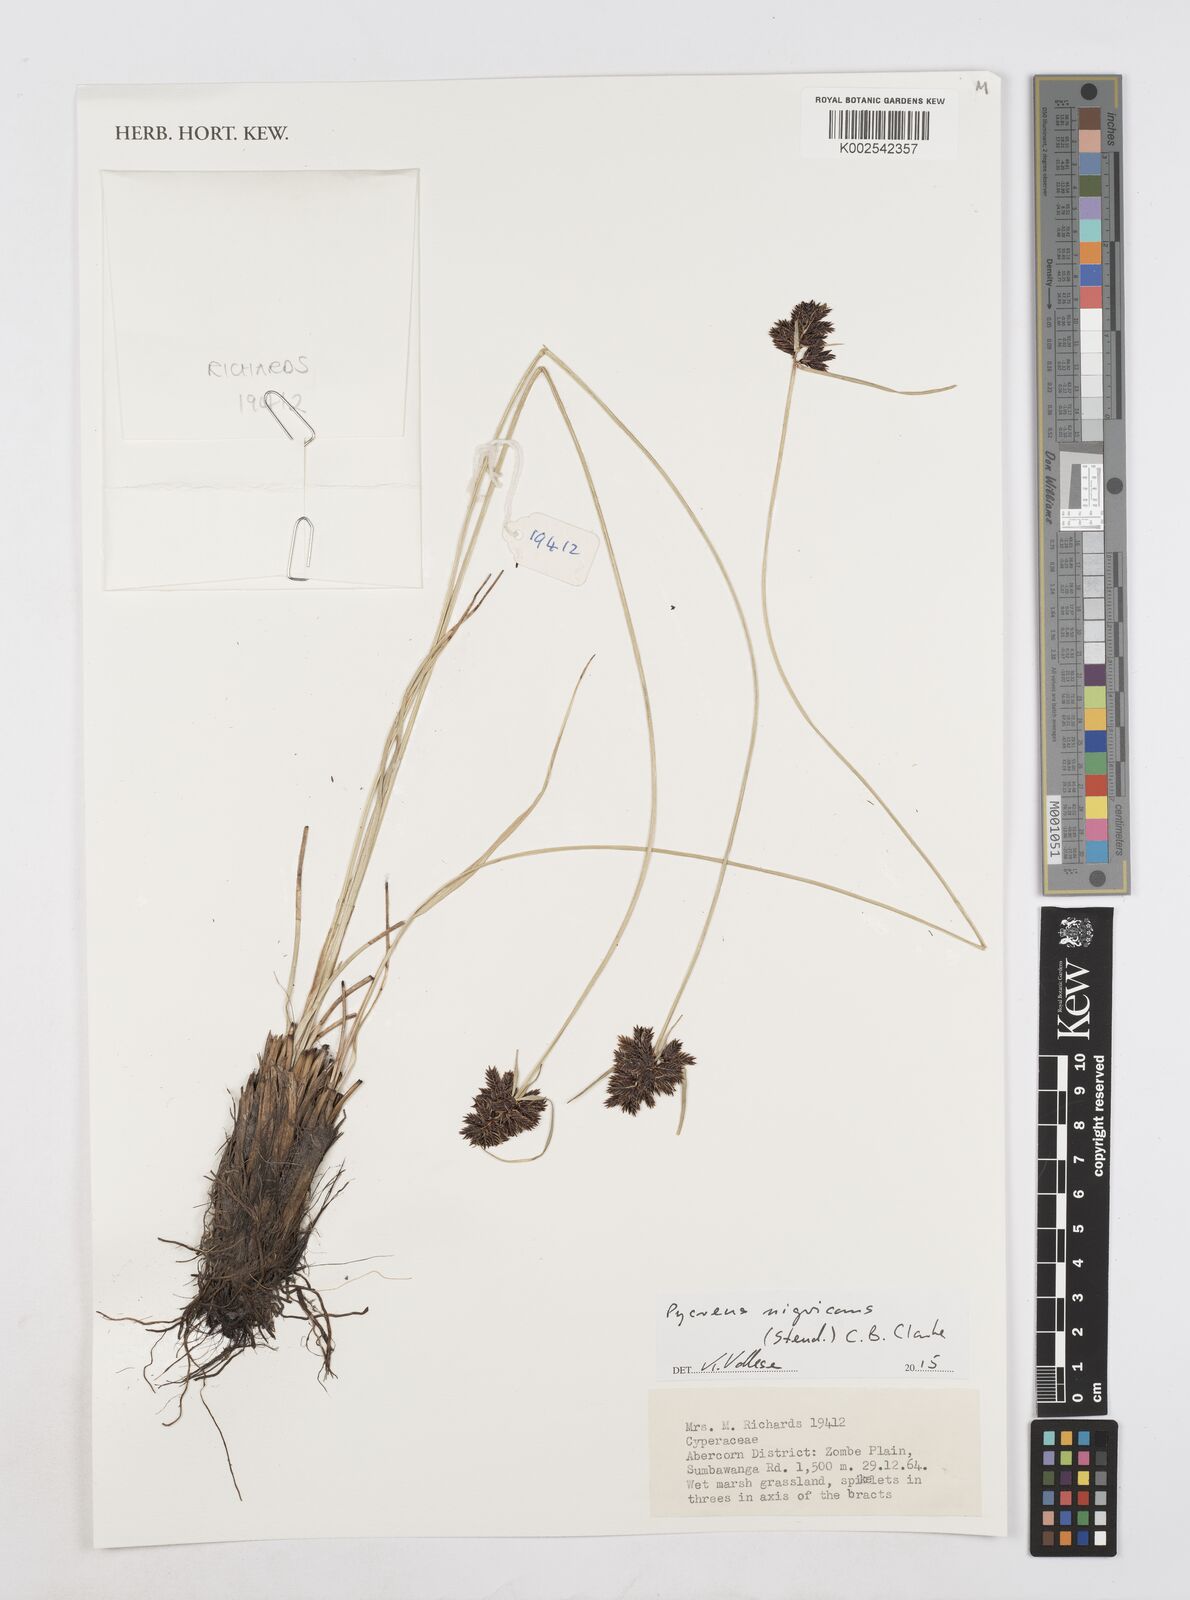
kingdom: Plantae
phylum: Tracheophyta
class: Liliopsida
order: Poales
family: Cyperaceae
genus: Cyperus
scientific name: Cyperus nigricans
